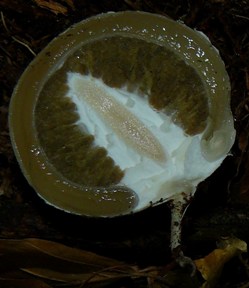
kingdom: Fungi
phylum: Basidiomycota
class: Agaricomycetes
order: Phallales
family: Phallaceae
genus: Phallus
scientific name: Phallus impudicus
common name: almindelig stinksvamp
